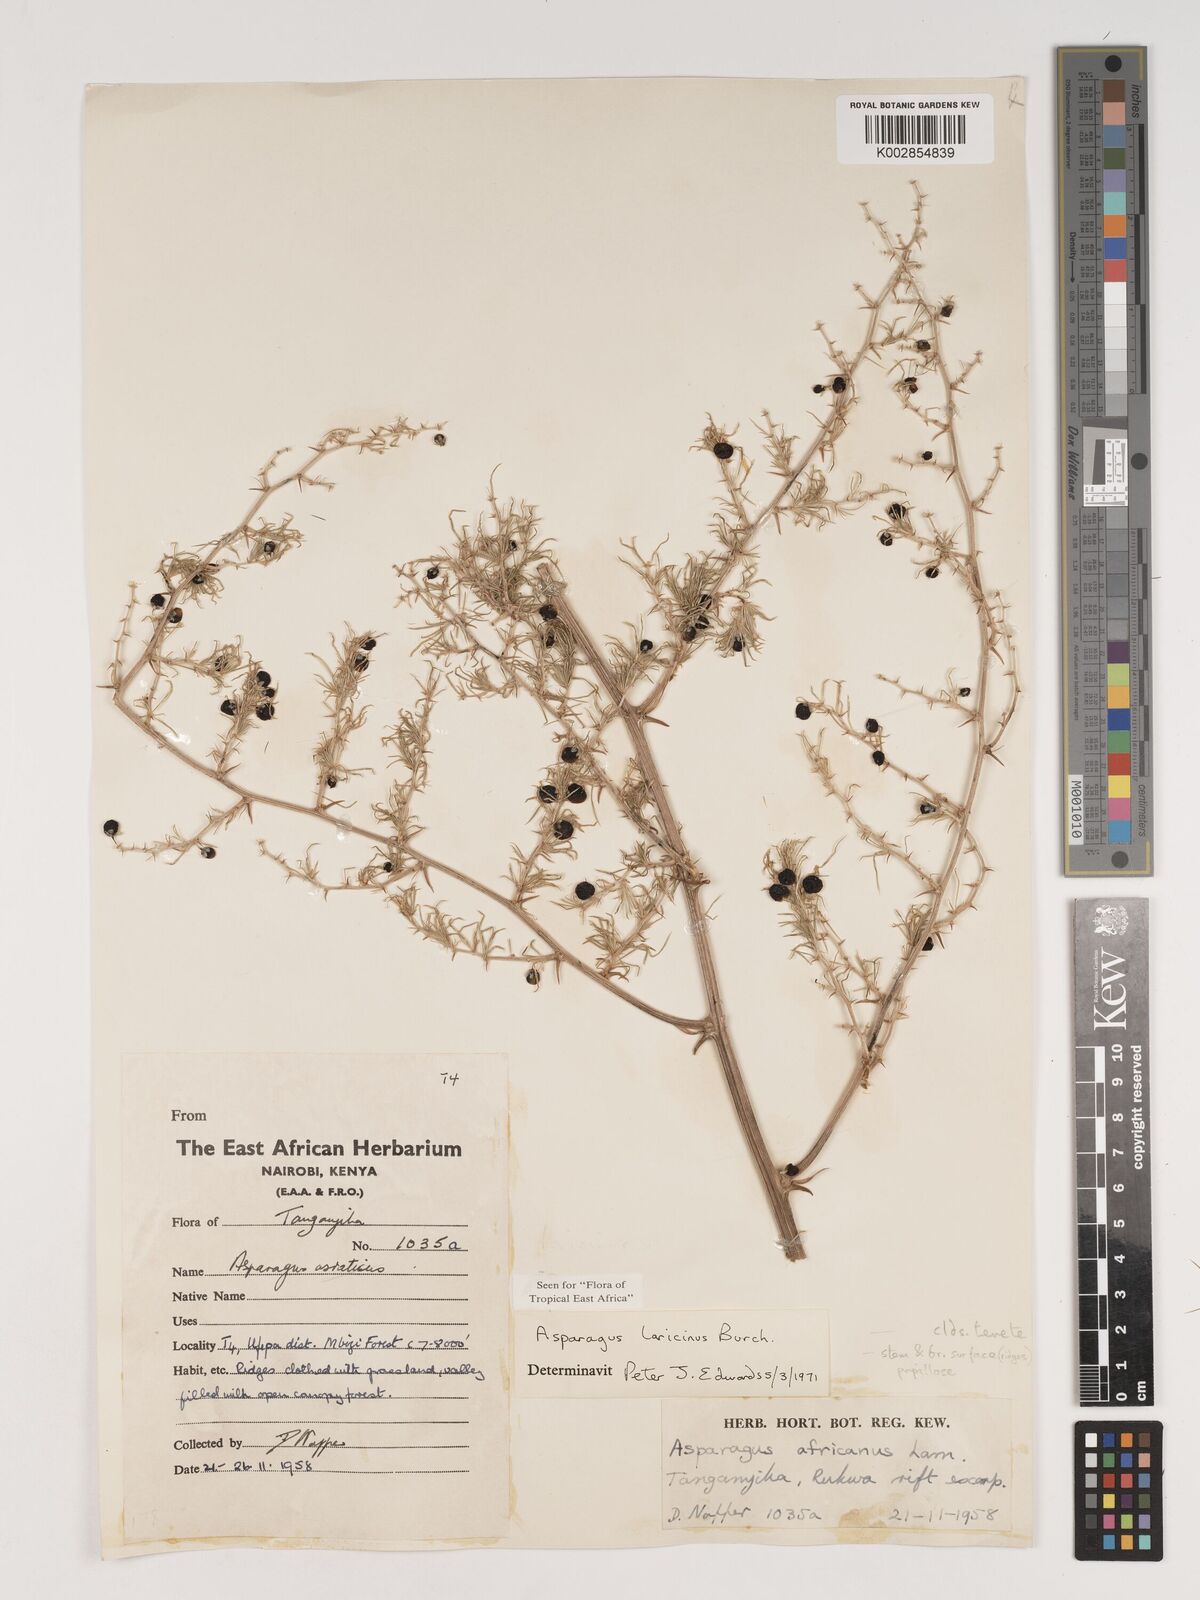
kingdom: Plantae
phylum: Tracheophyta
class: Liliopsida
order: Asparagales
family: Asparagaceae
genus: Asparagus
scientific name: Asparagus laricinus
